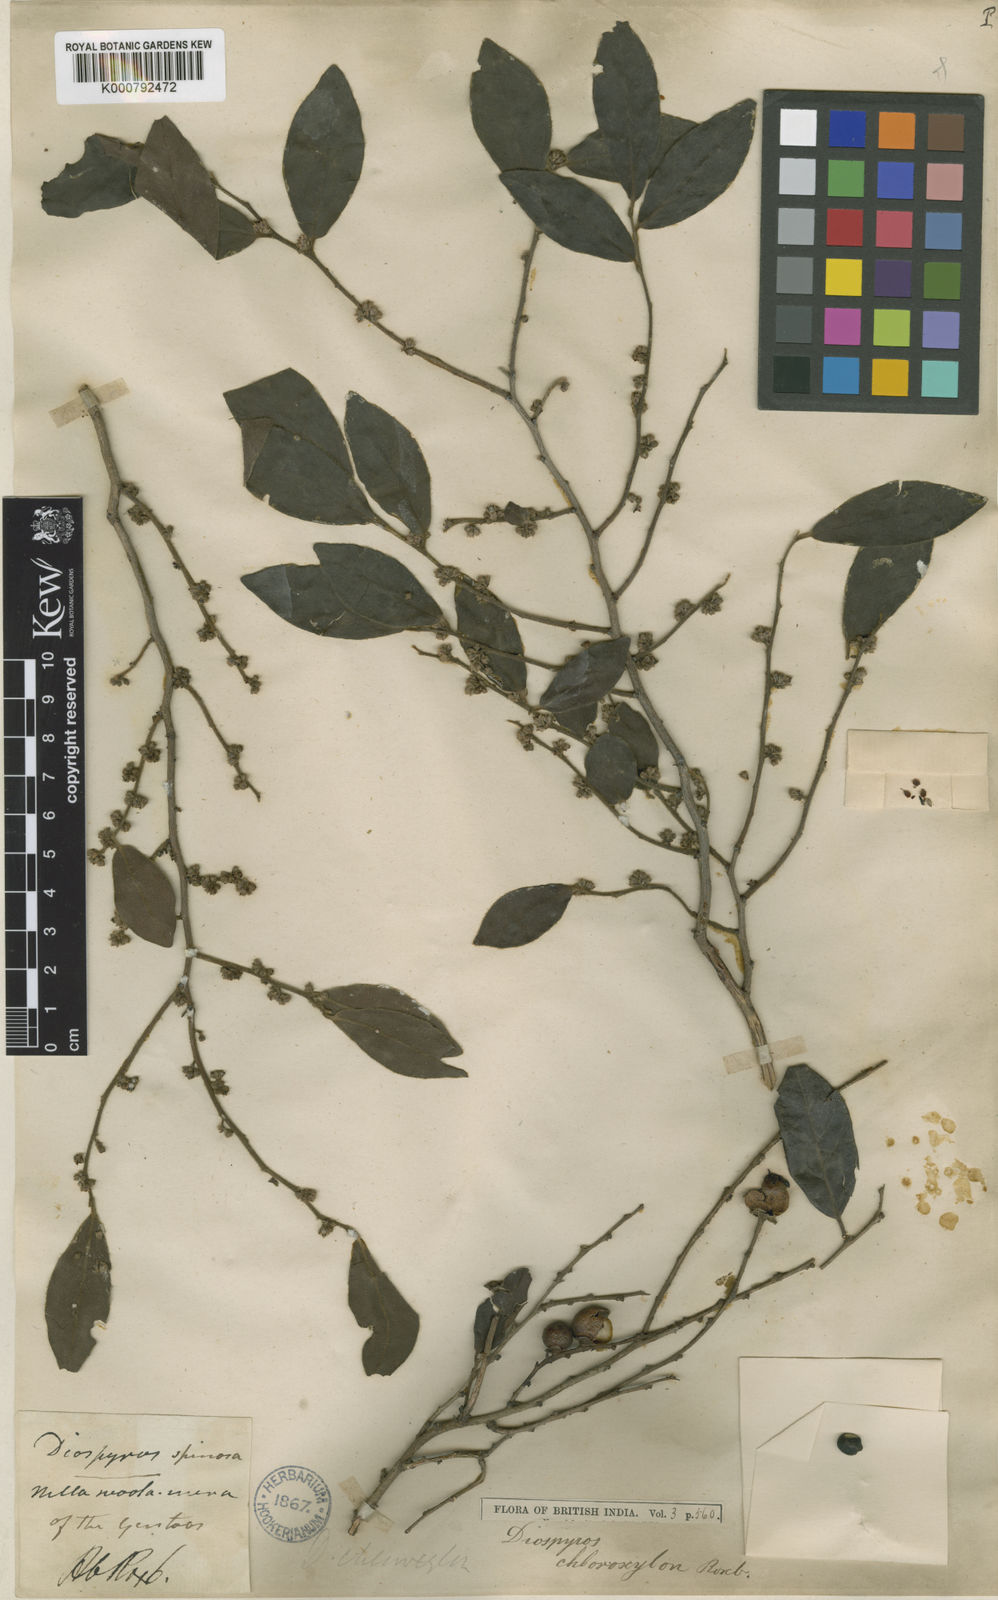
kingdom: Plantae
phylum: Tracheophyta
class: Magnoliopsida
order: Ericales
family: Ebenaceae
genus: Diospyros
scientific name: Diospyros chloroxylon
